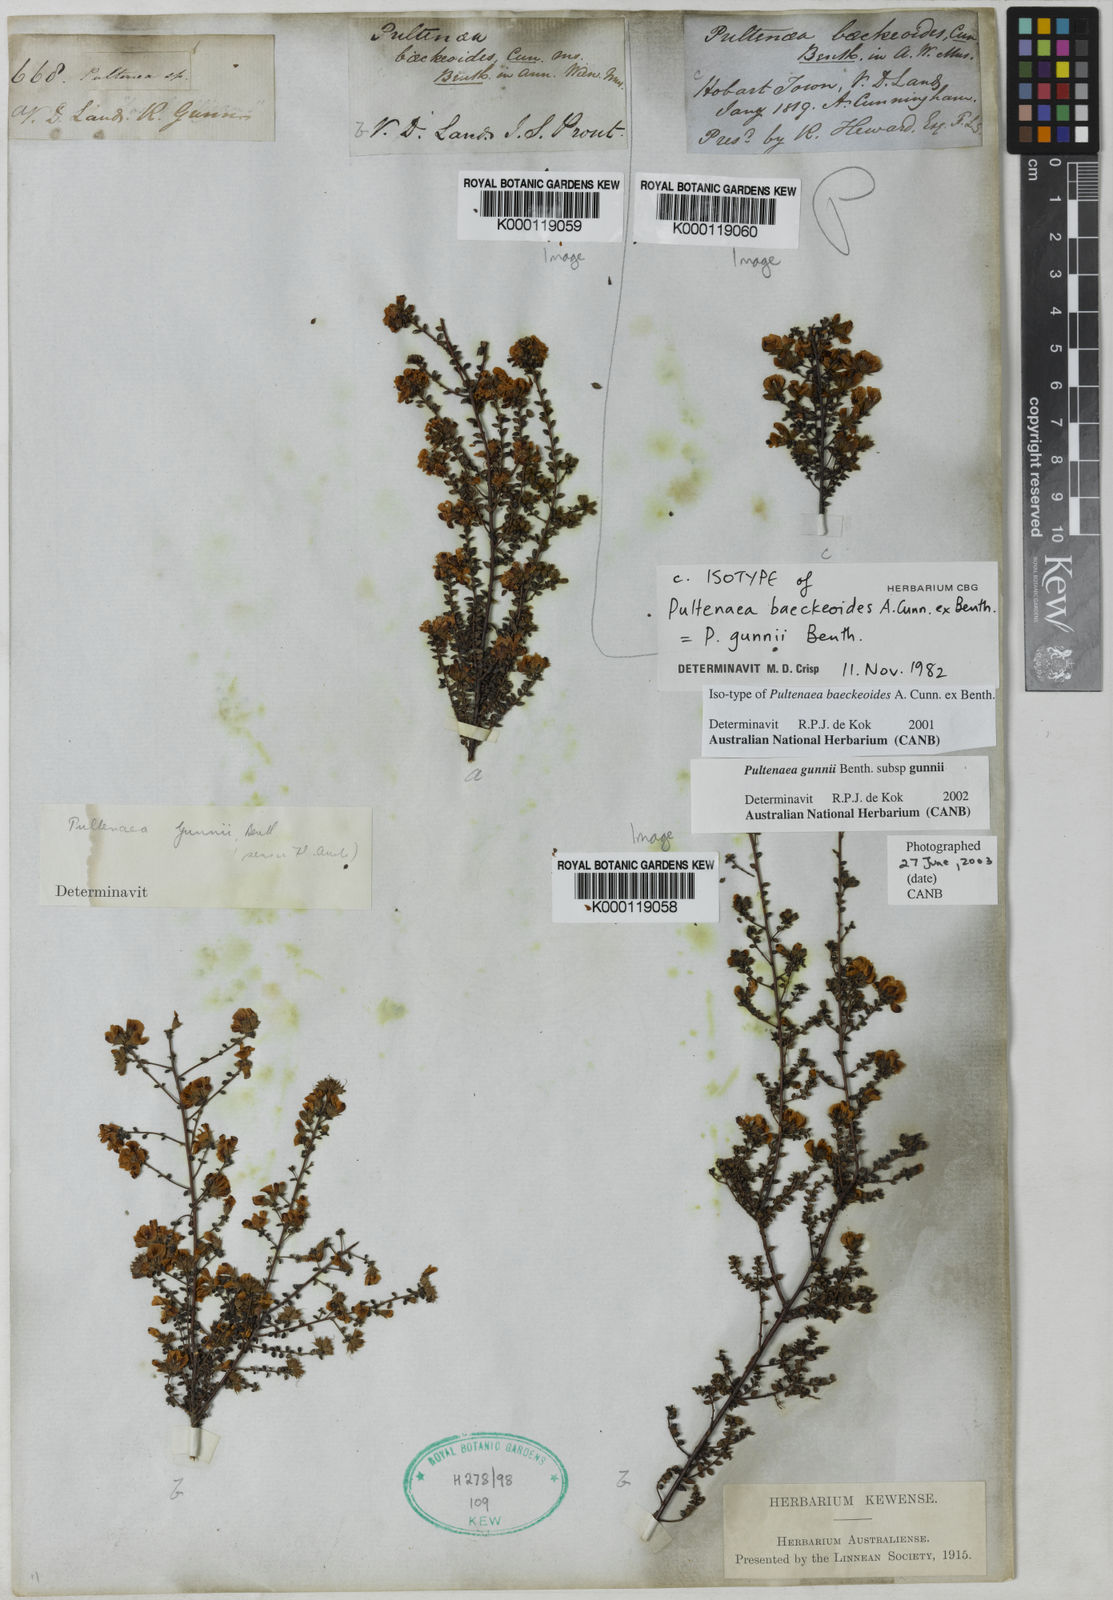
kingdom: Plantae
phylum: Tracheophyta
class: Magnoliopsida
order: Fabales
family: Fabaceae
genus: Pultenaea
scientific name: Pultenaea gunnii
